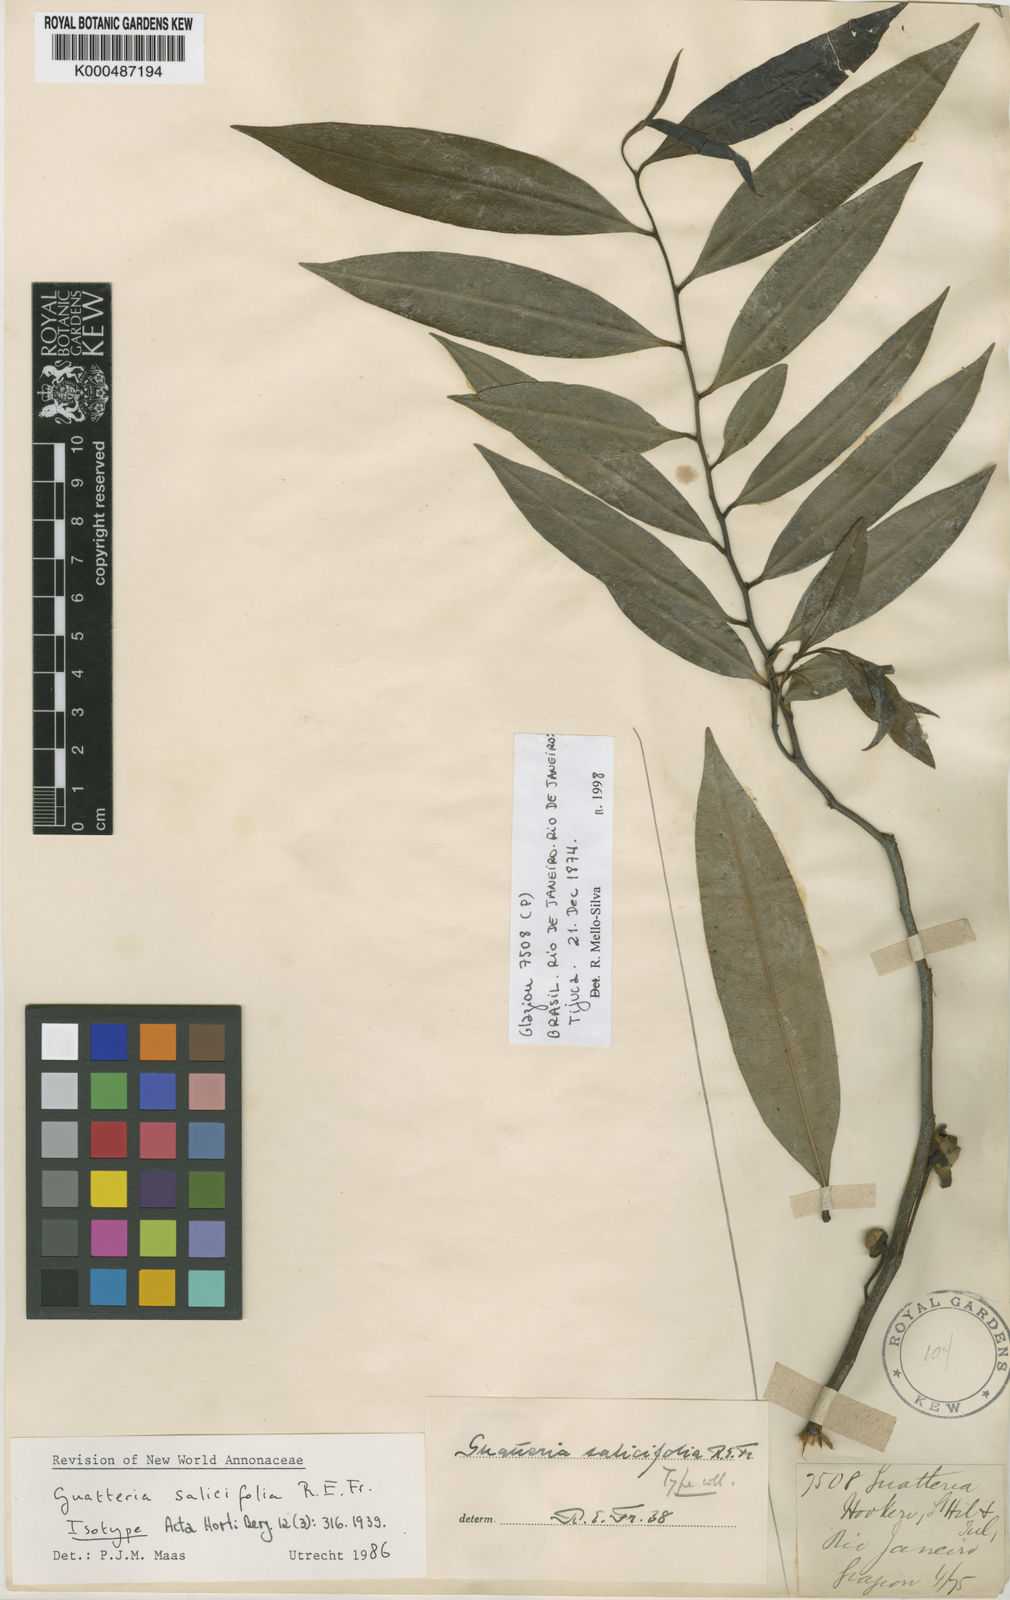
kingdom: Plantae
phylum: Tracheophyta
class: Magnoliopsida
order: Magnoliales
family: Annonaceae
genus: Guatteria
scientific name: Guatteria australis
